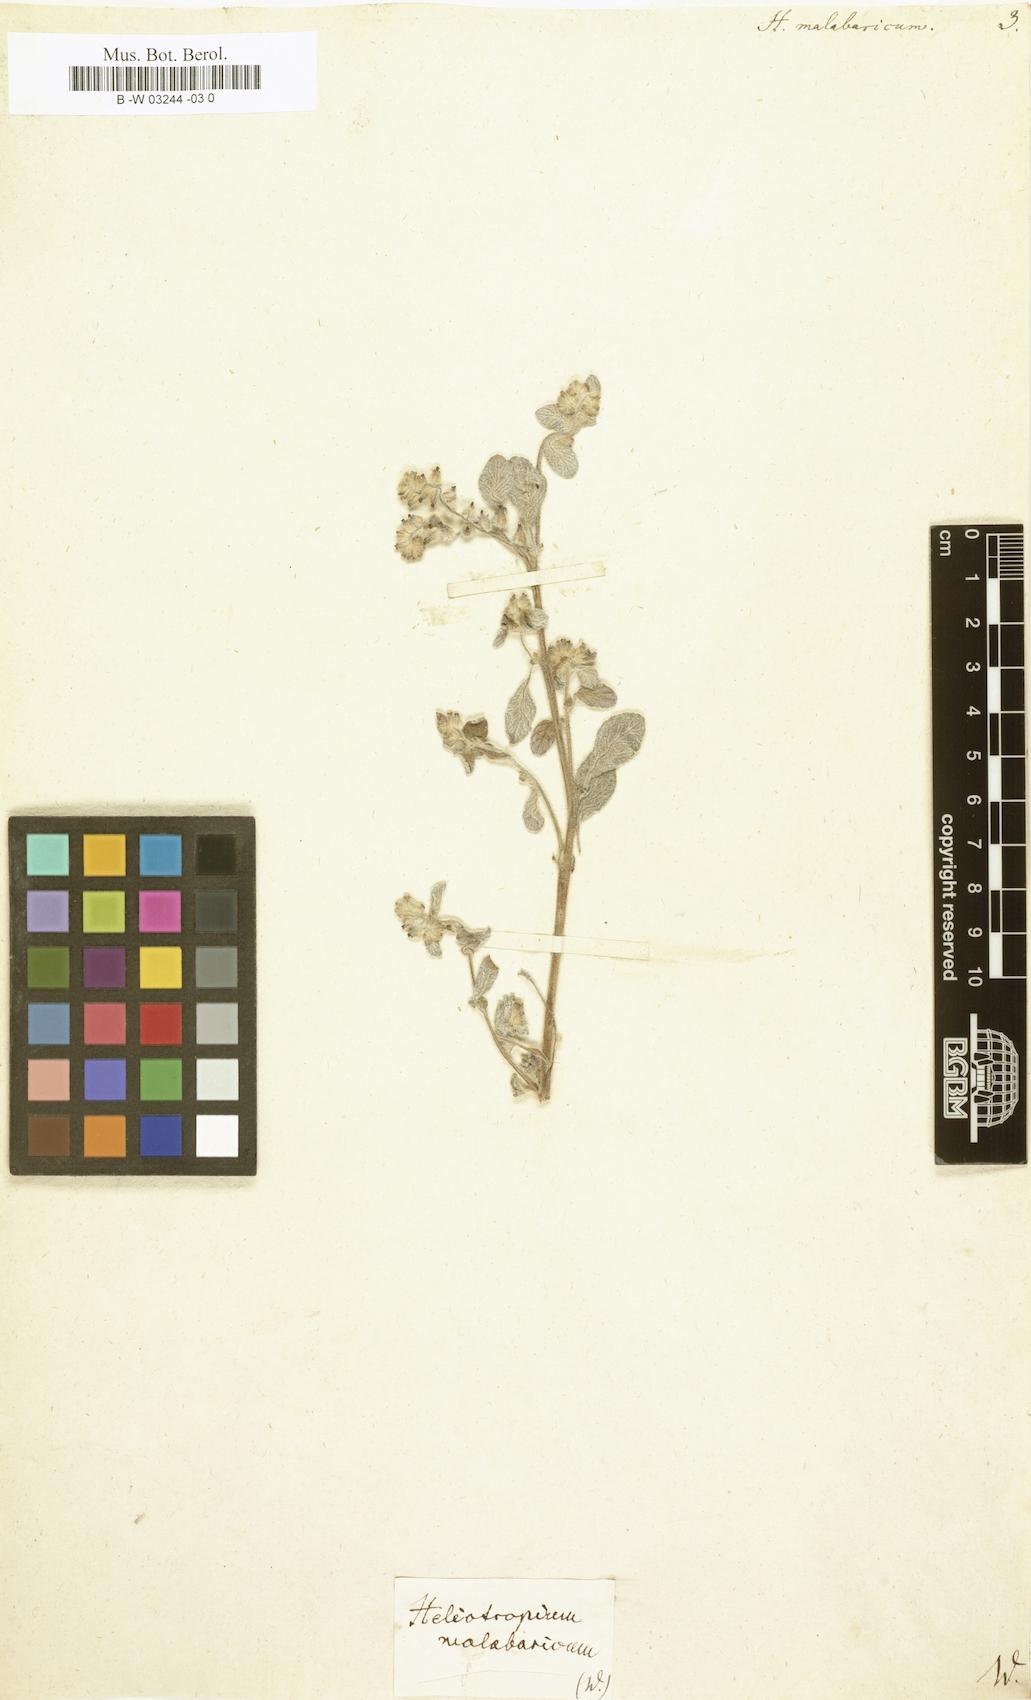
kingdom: Plantae
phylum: Tracheophyta
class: Magnoliopsida
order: Boraginales
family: Heliotropiaceae
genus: Heliotropium
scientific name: Heliotropium supinum
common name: Dwarf heliotrope
